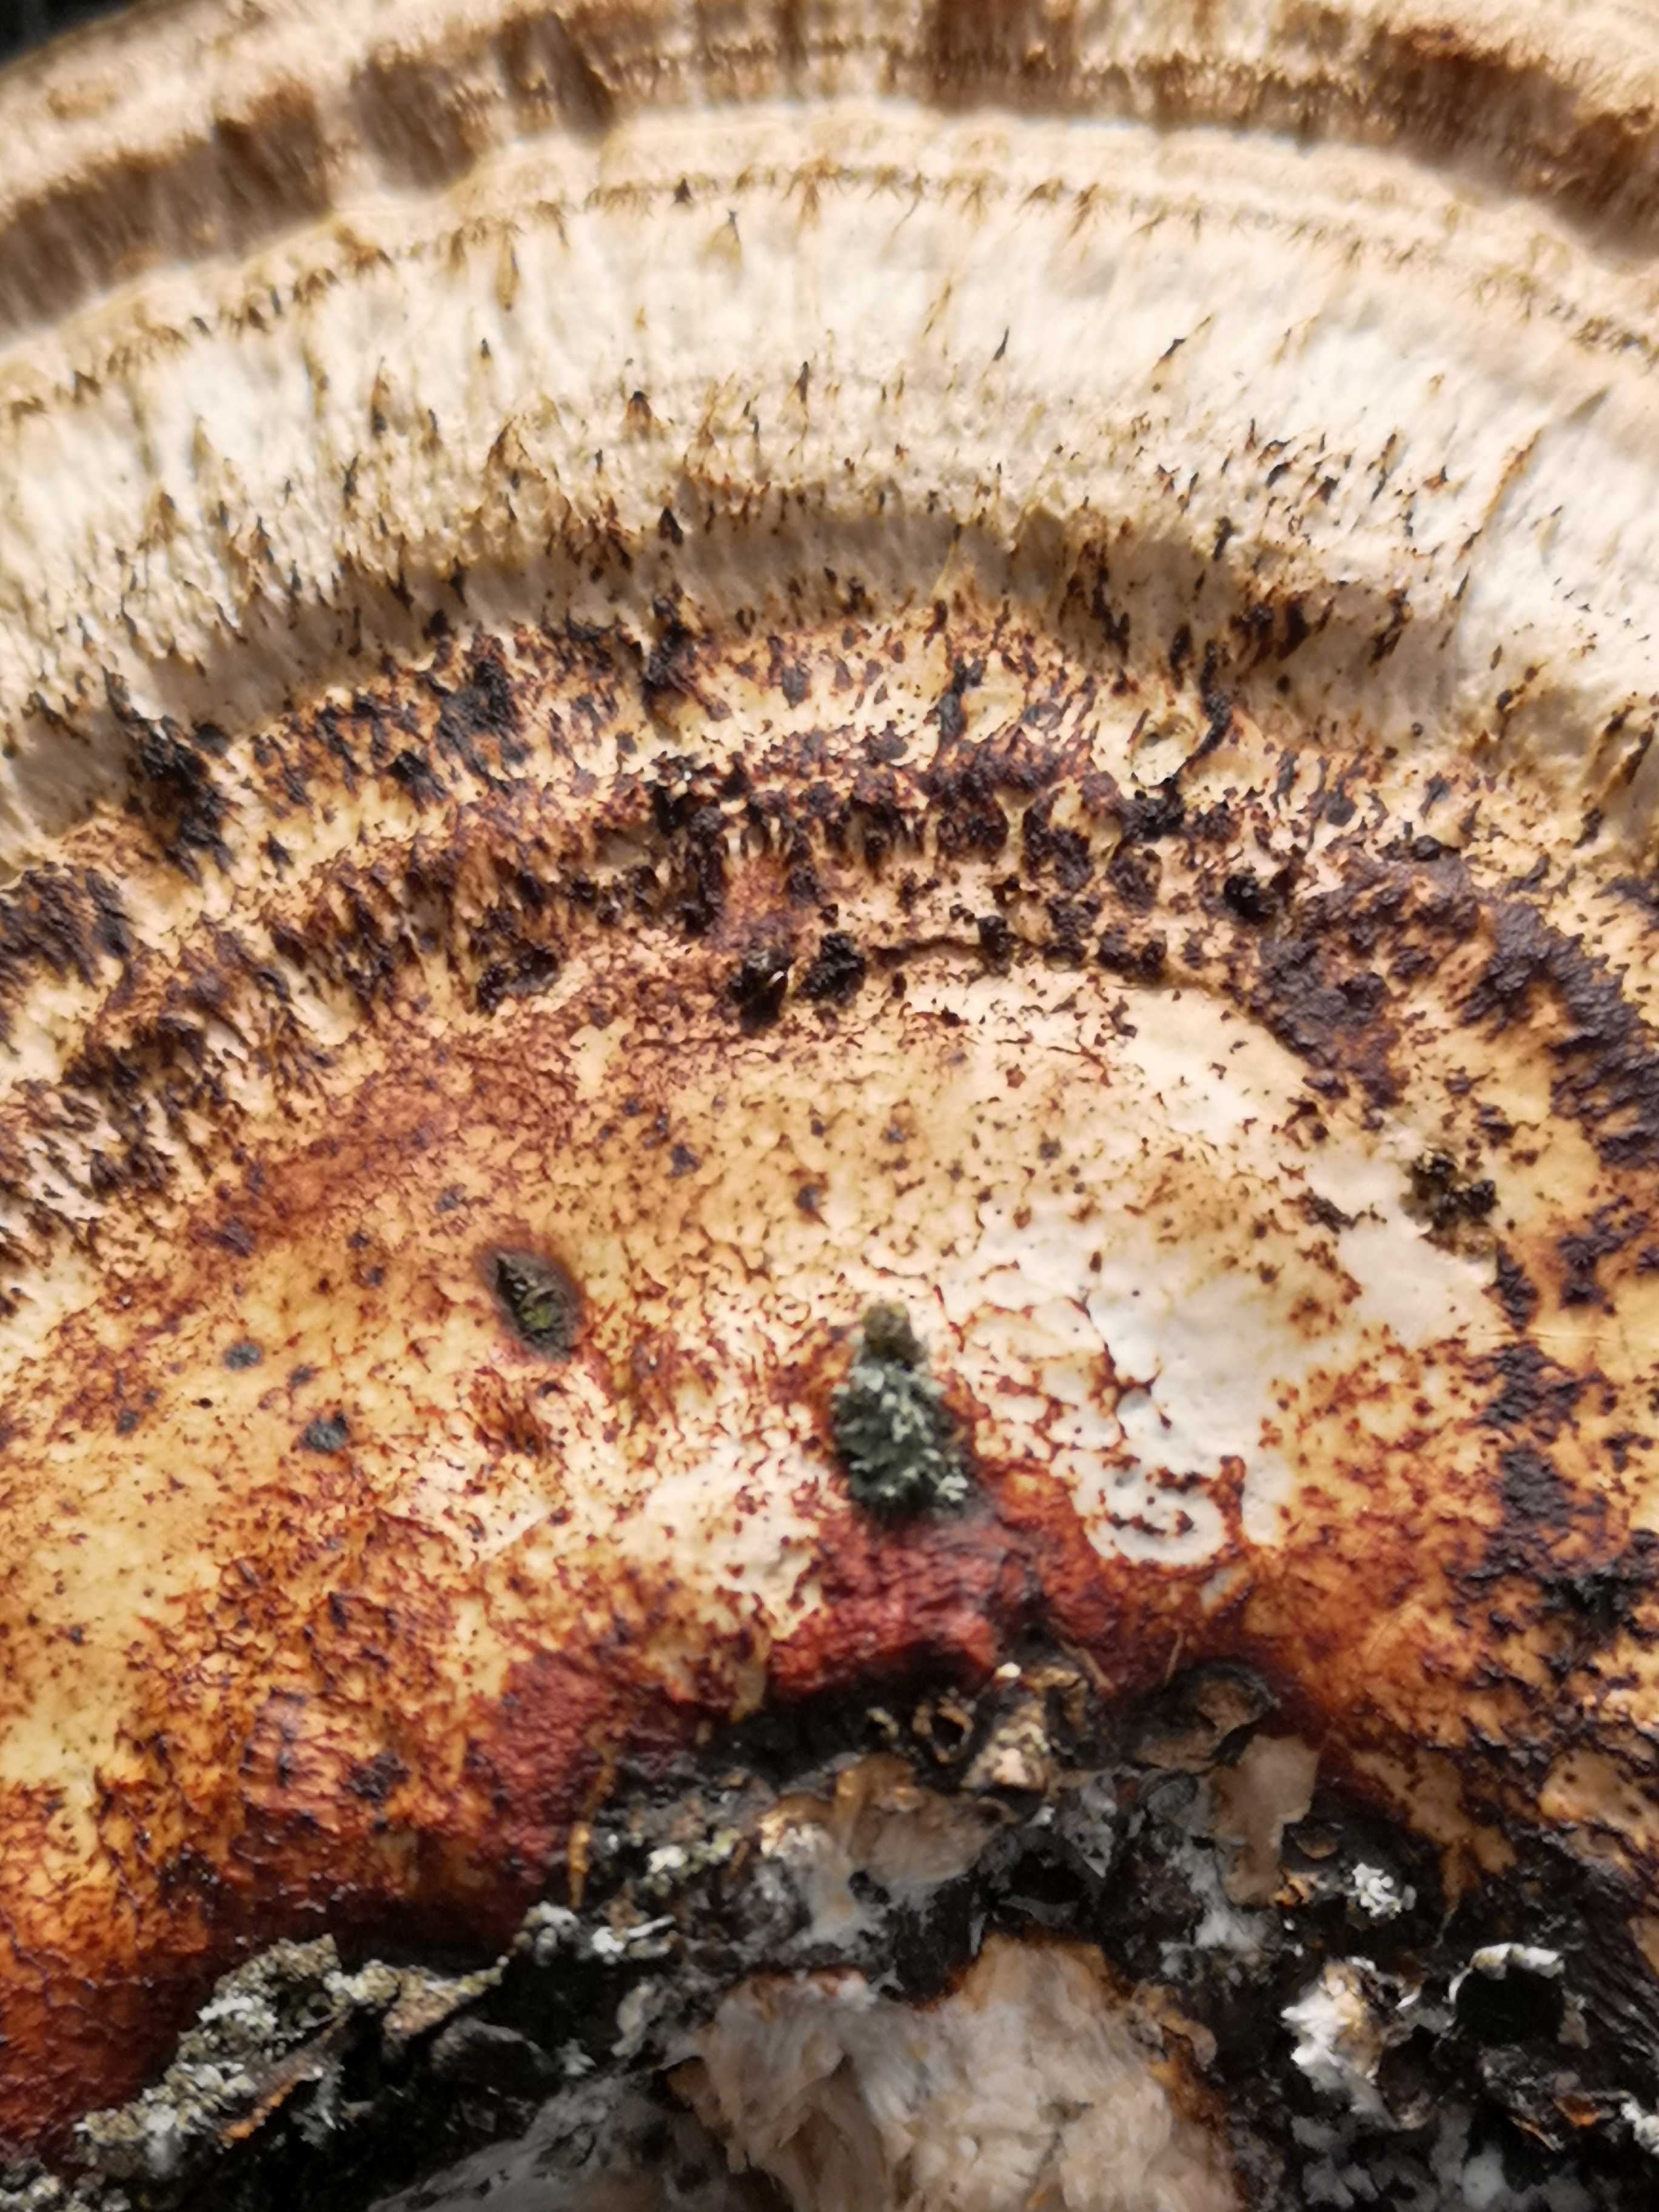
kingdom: Fungi
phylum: Basidiomycota
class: Agaricomycetes
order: Polyporales
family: Polyporaceae
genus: Daedaleopsis
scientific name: Daedaleopsis confragosa
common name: rødmende læderporesvamp
